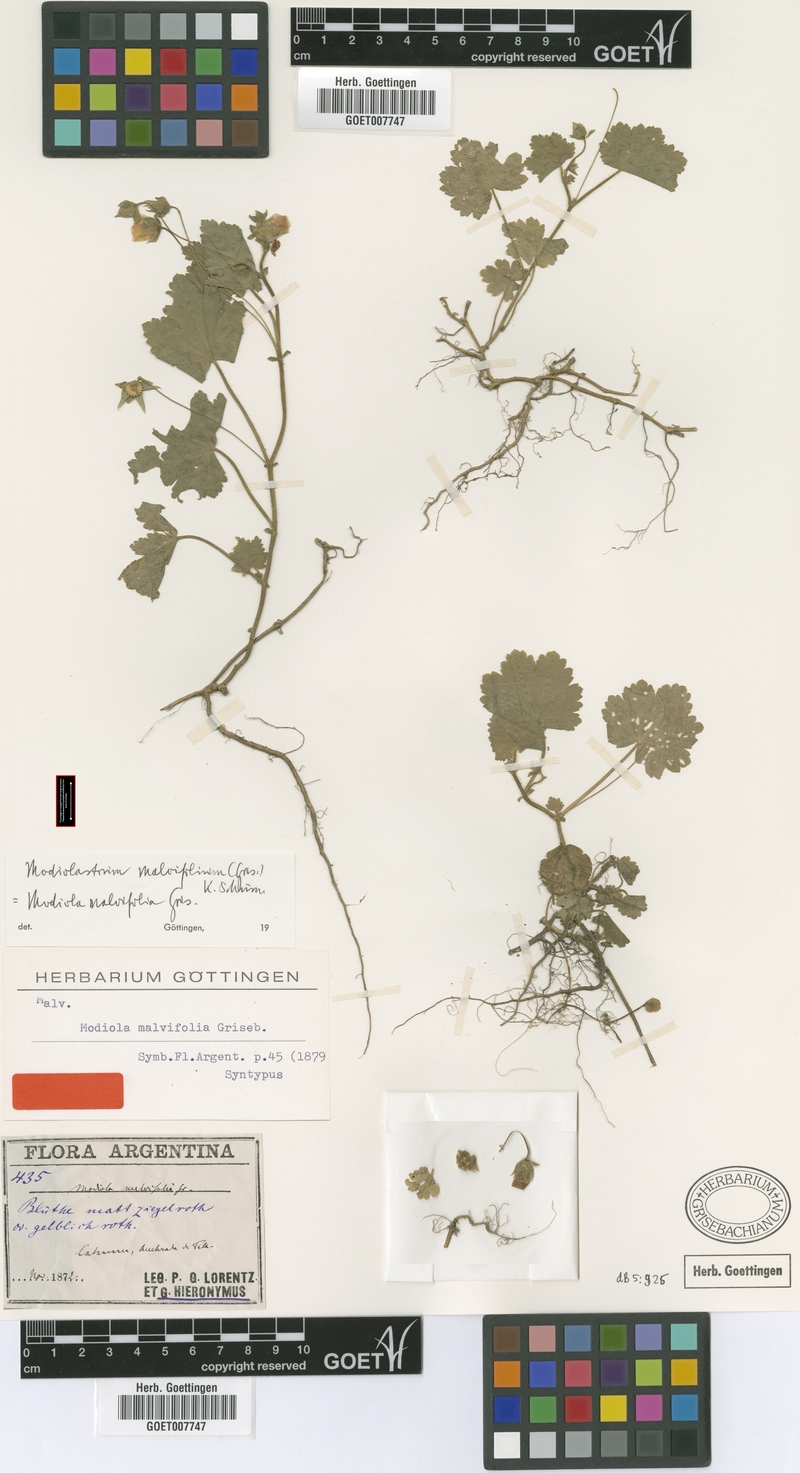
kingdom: Plantae
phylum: Tracheophyta
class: Magnoliopsida
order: Malvales
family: Malvaceae
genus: Modiolastrum
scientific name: Modiolastrum malvifolium
